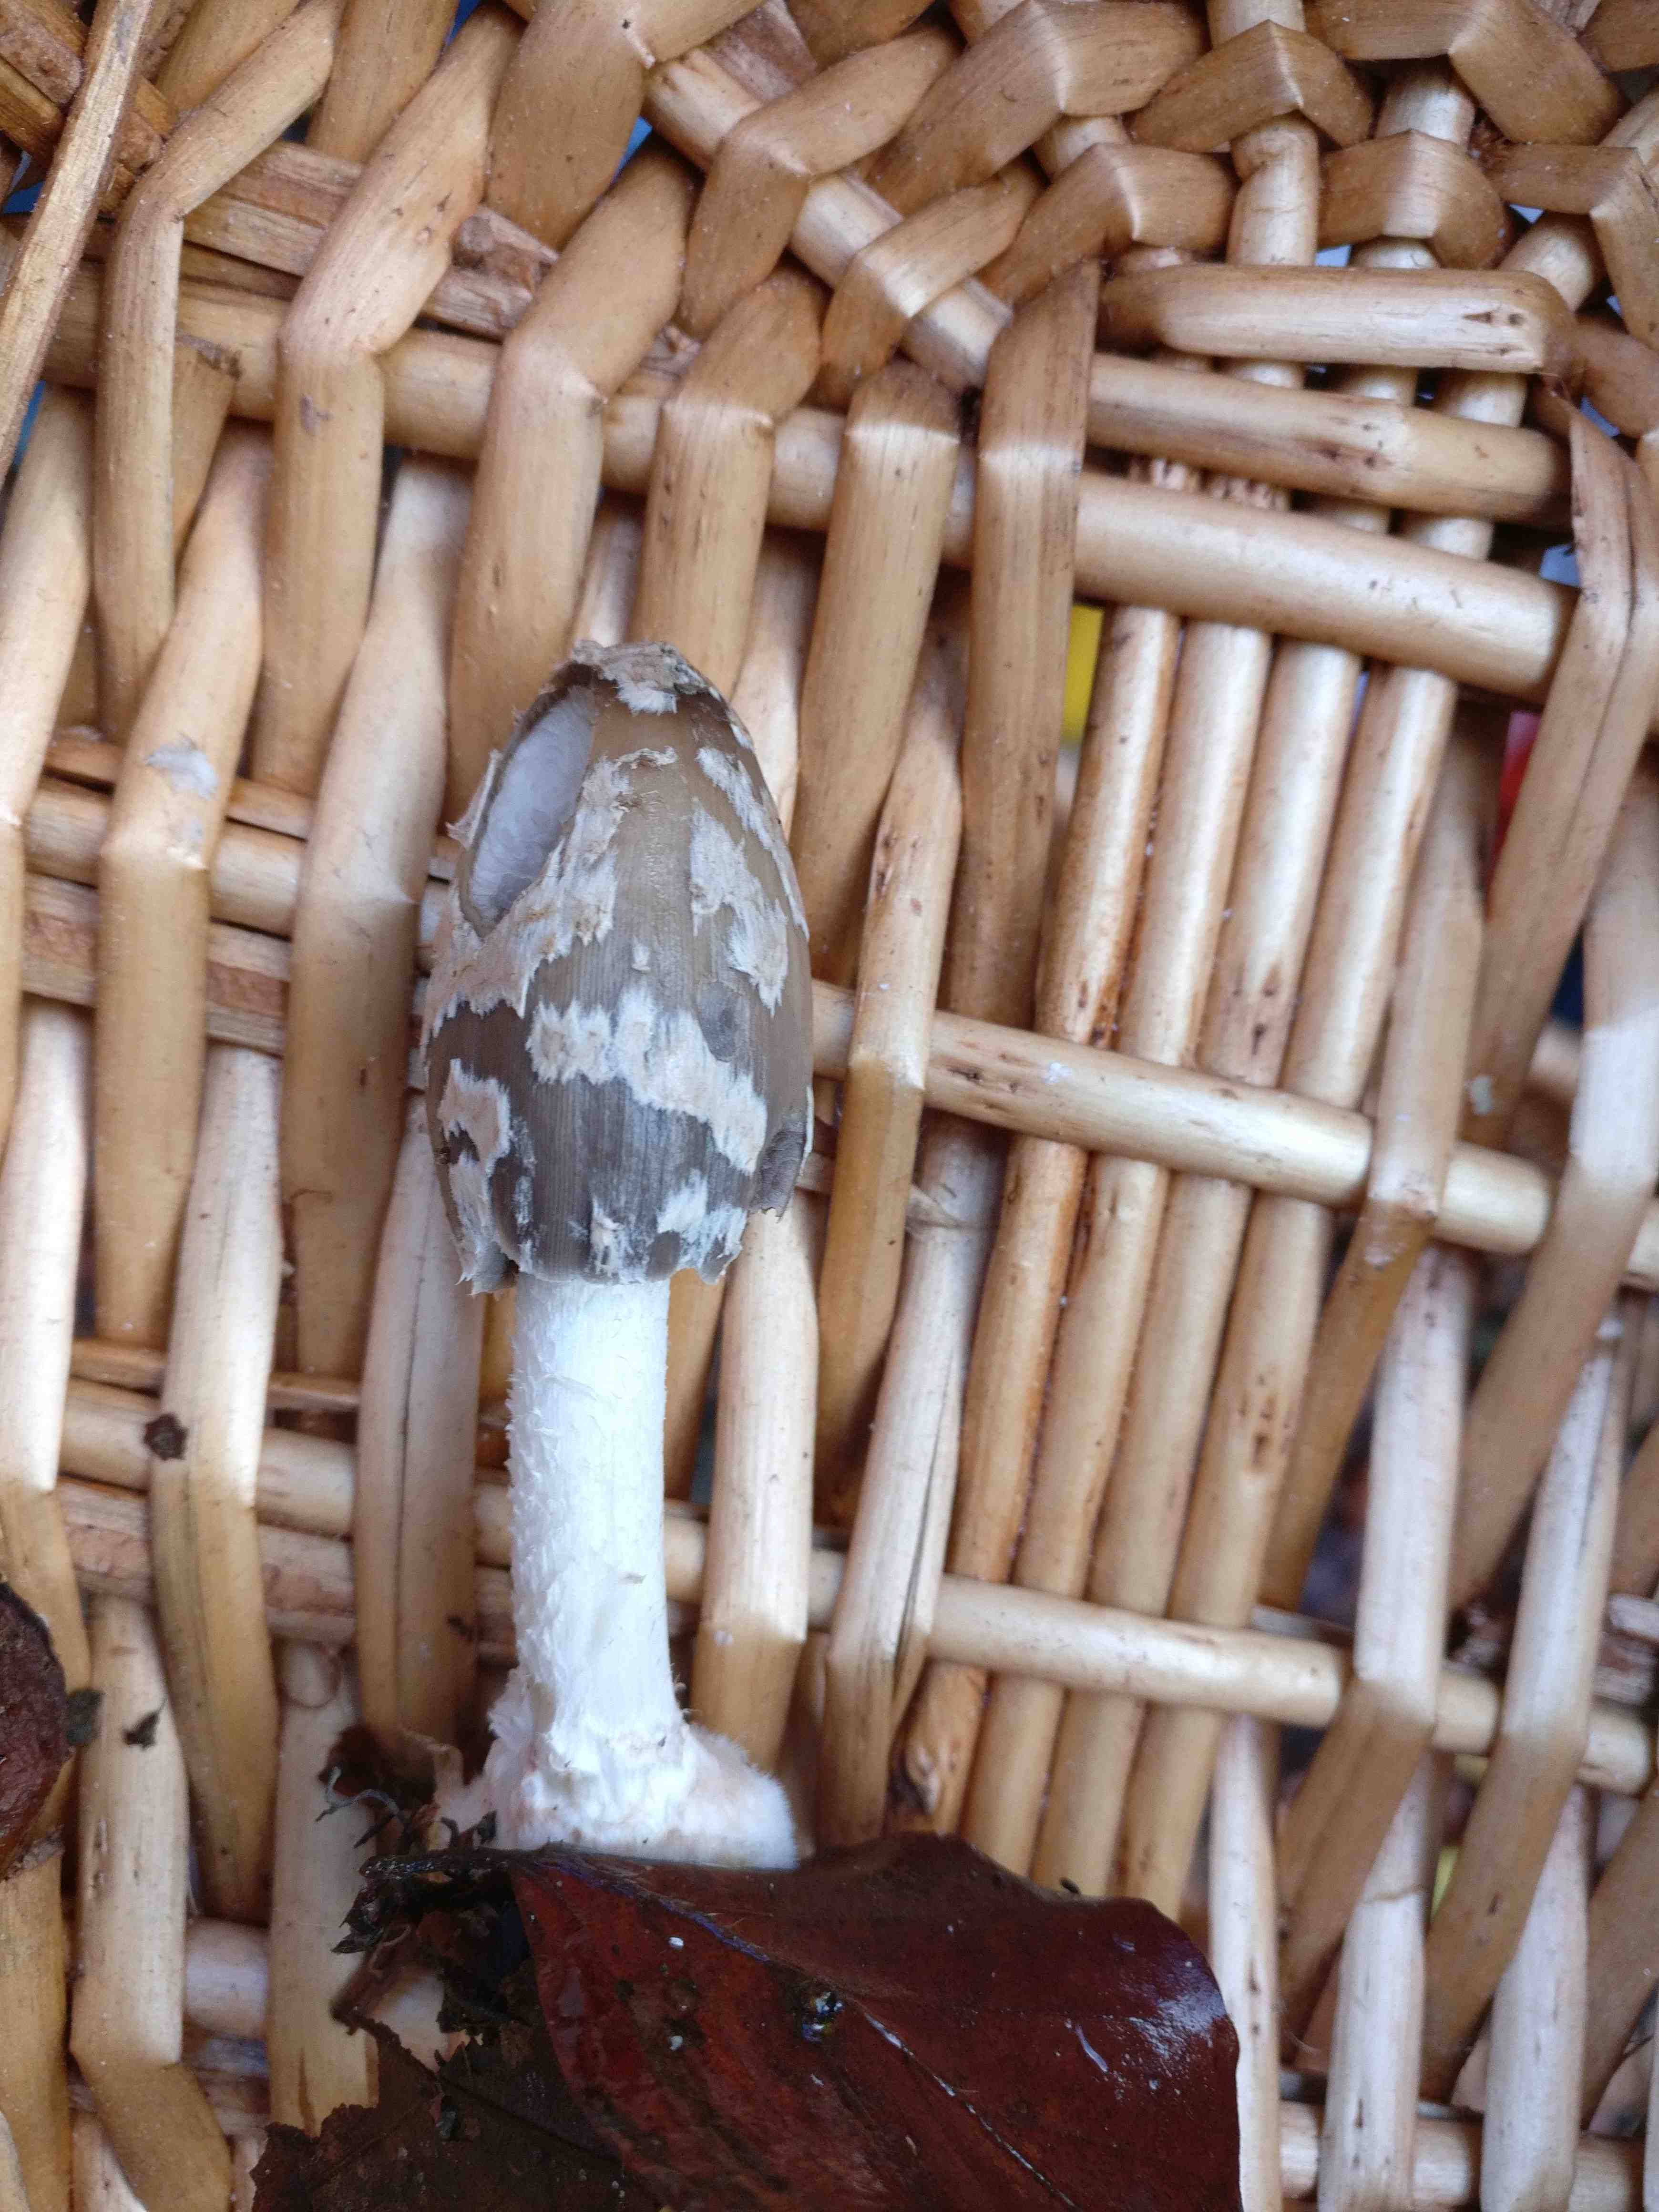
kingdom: Fungi
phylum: Basidiomycota
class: Agaricomycetes
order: Agaricales
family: Psathyrellaceae
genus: Coprinopsis
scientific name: Coprinopsis picacea
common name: skade-blækhat
